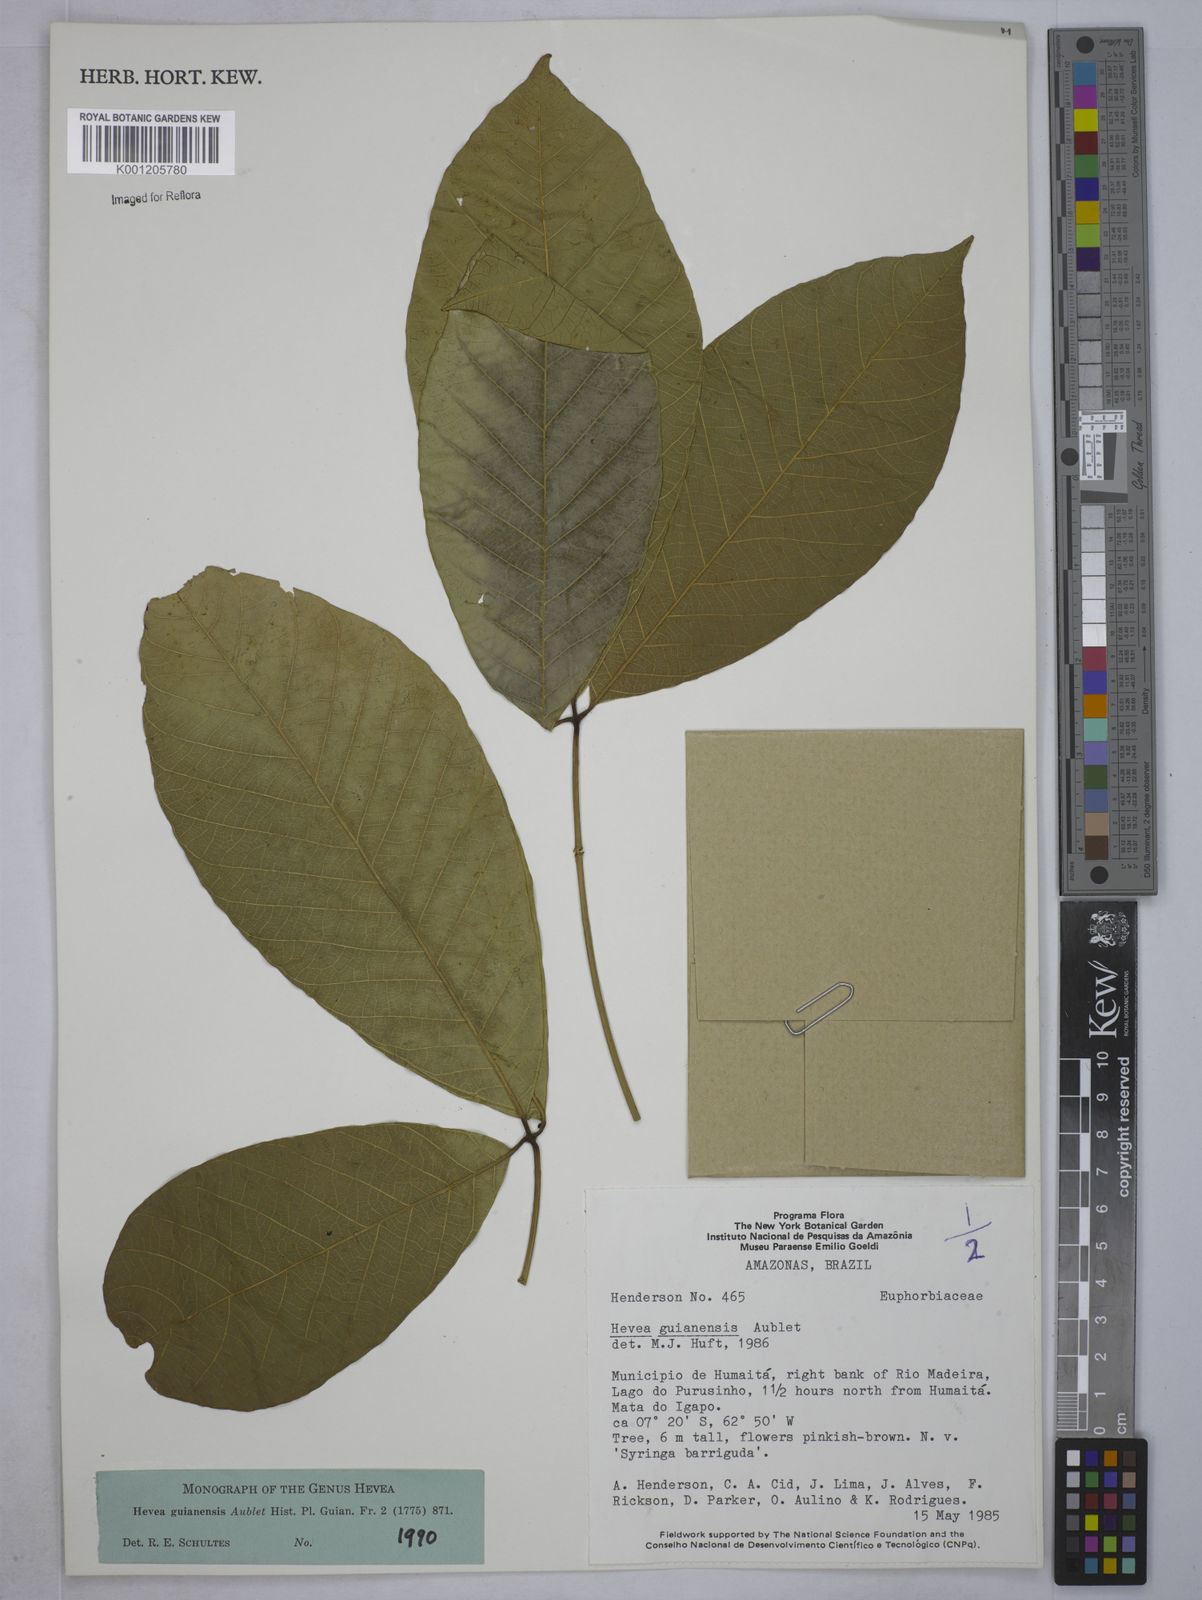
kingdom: Plantae
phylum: Tracheophyta
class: Magnoliopsida
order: Malpighiales
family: Euphorbiaceae
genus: Hevea
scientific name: Hevea guianensis
